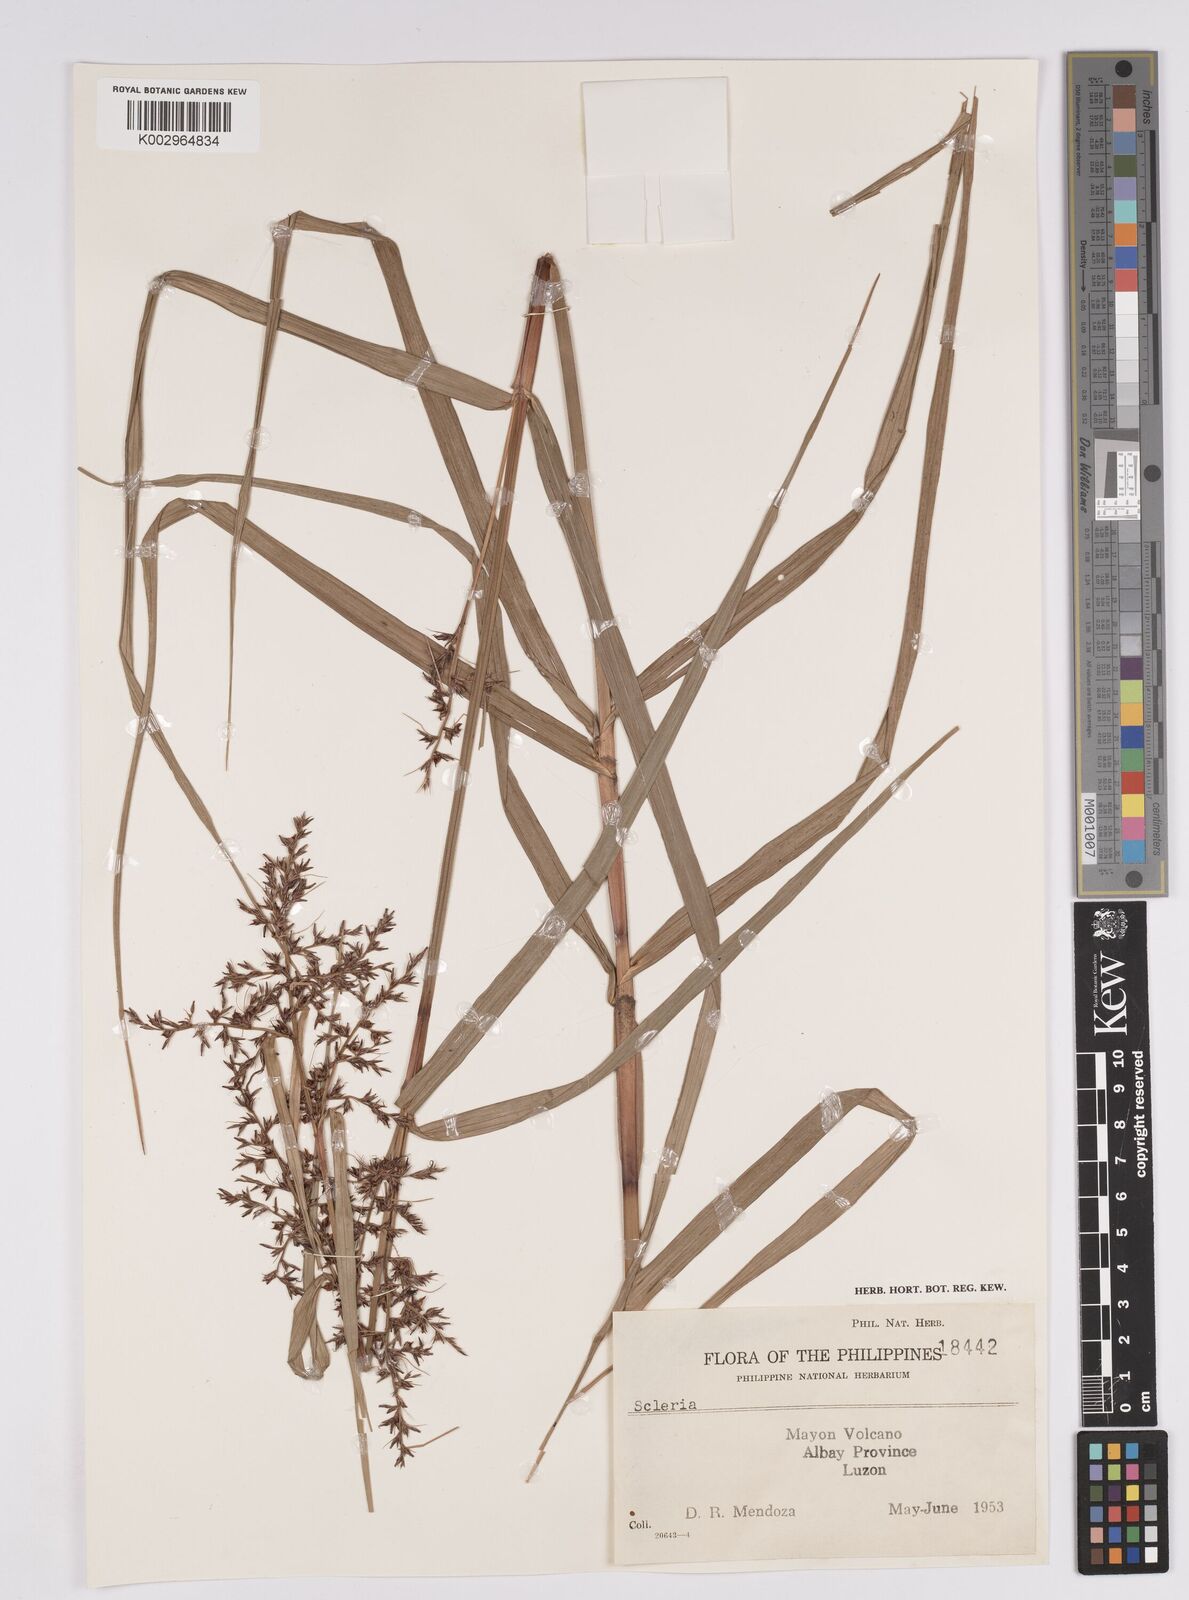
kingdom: Plantae
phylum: Tracheophyta
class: Liliopsida
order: Poales
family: Cyperaceae
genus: Scleria
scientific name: Scleria
